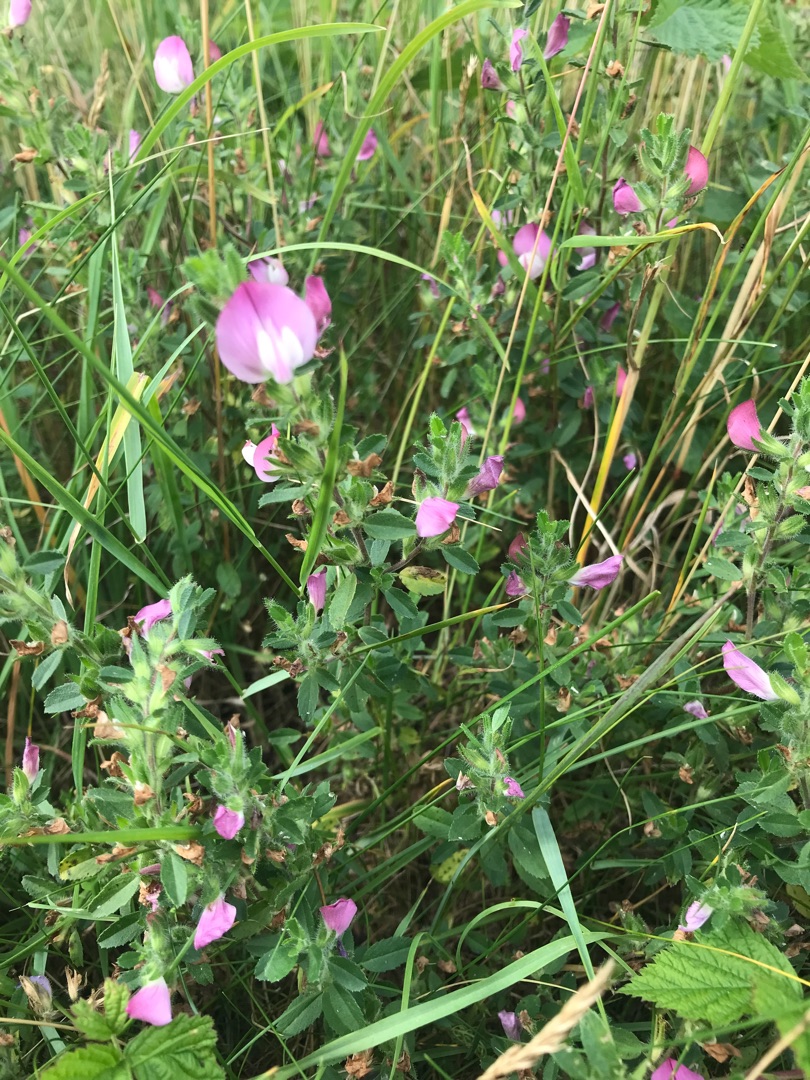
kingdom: Plantae
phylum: Tracheophyta
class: Magnoliopsida
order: Fabales
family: Fabaceae
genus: Ononis
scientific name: Ononis spinosa
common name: Mark-krageklo
